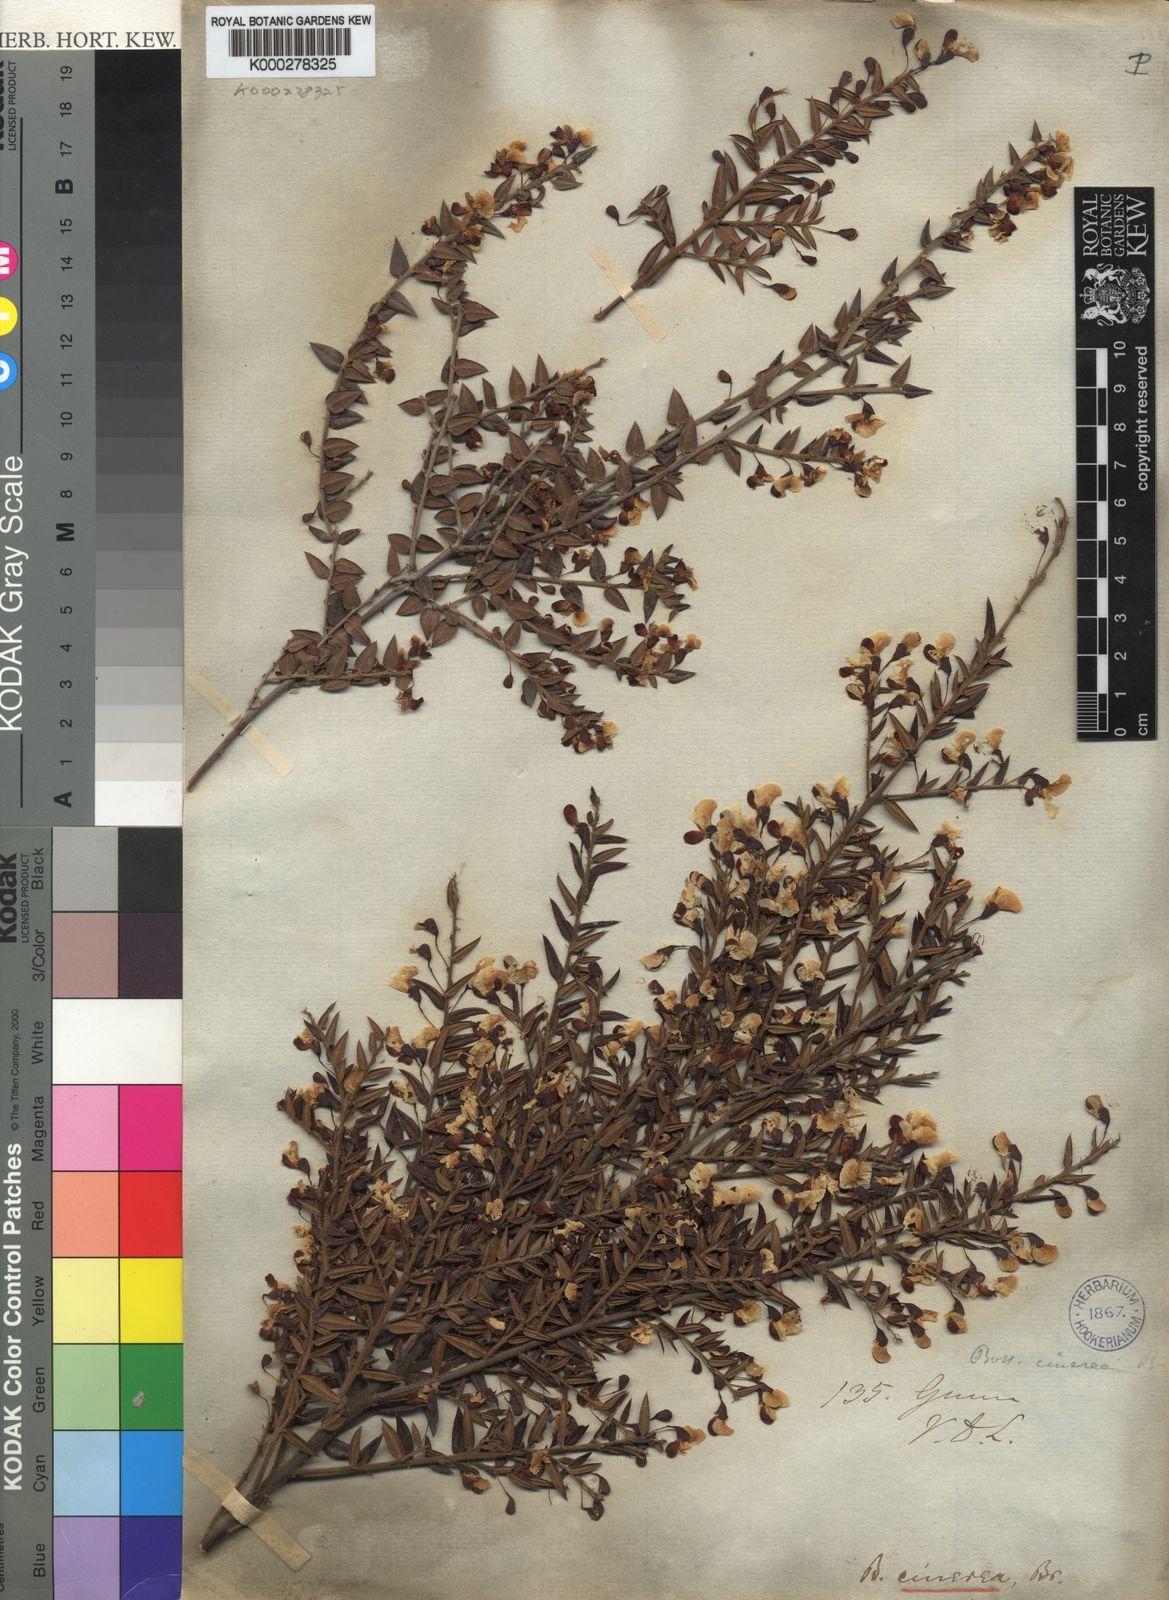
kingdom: Plantae
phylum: Tracheophyta
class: Magnoliopsida
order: Fabales
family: Fabaceae
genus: Bossiaea
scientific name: Bossiaea cinerea
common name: Showy bossiaea
